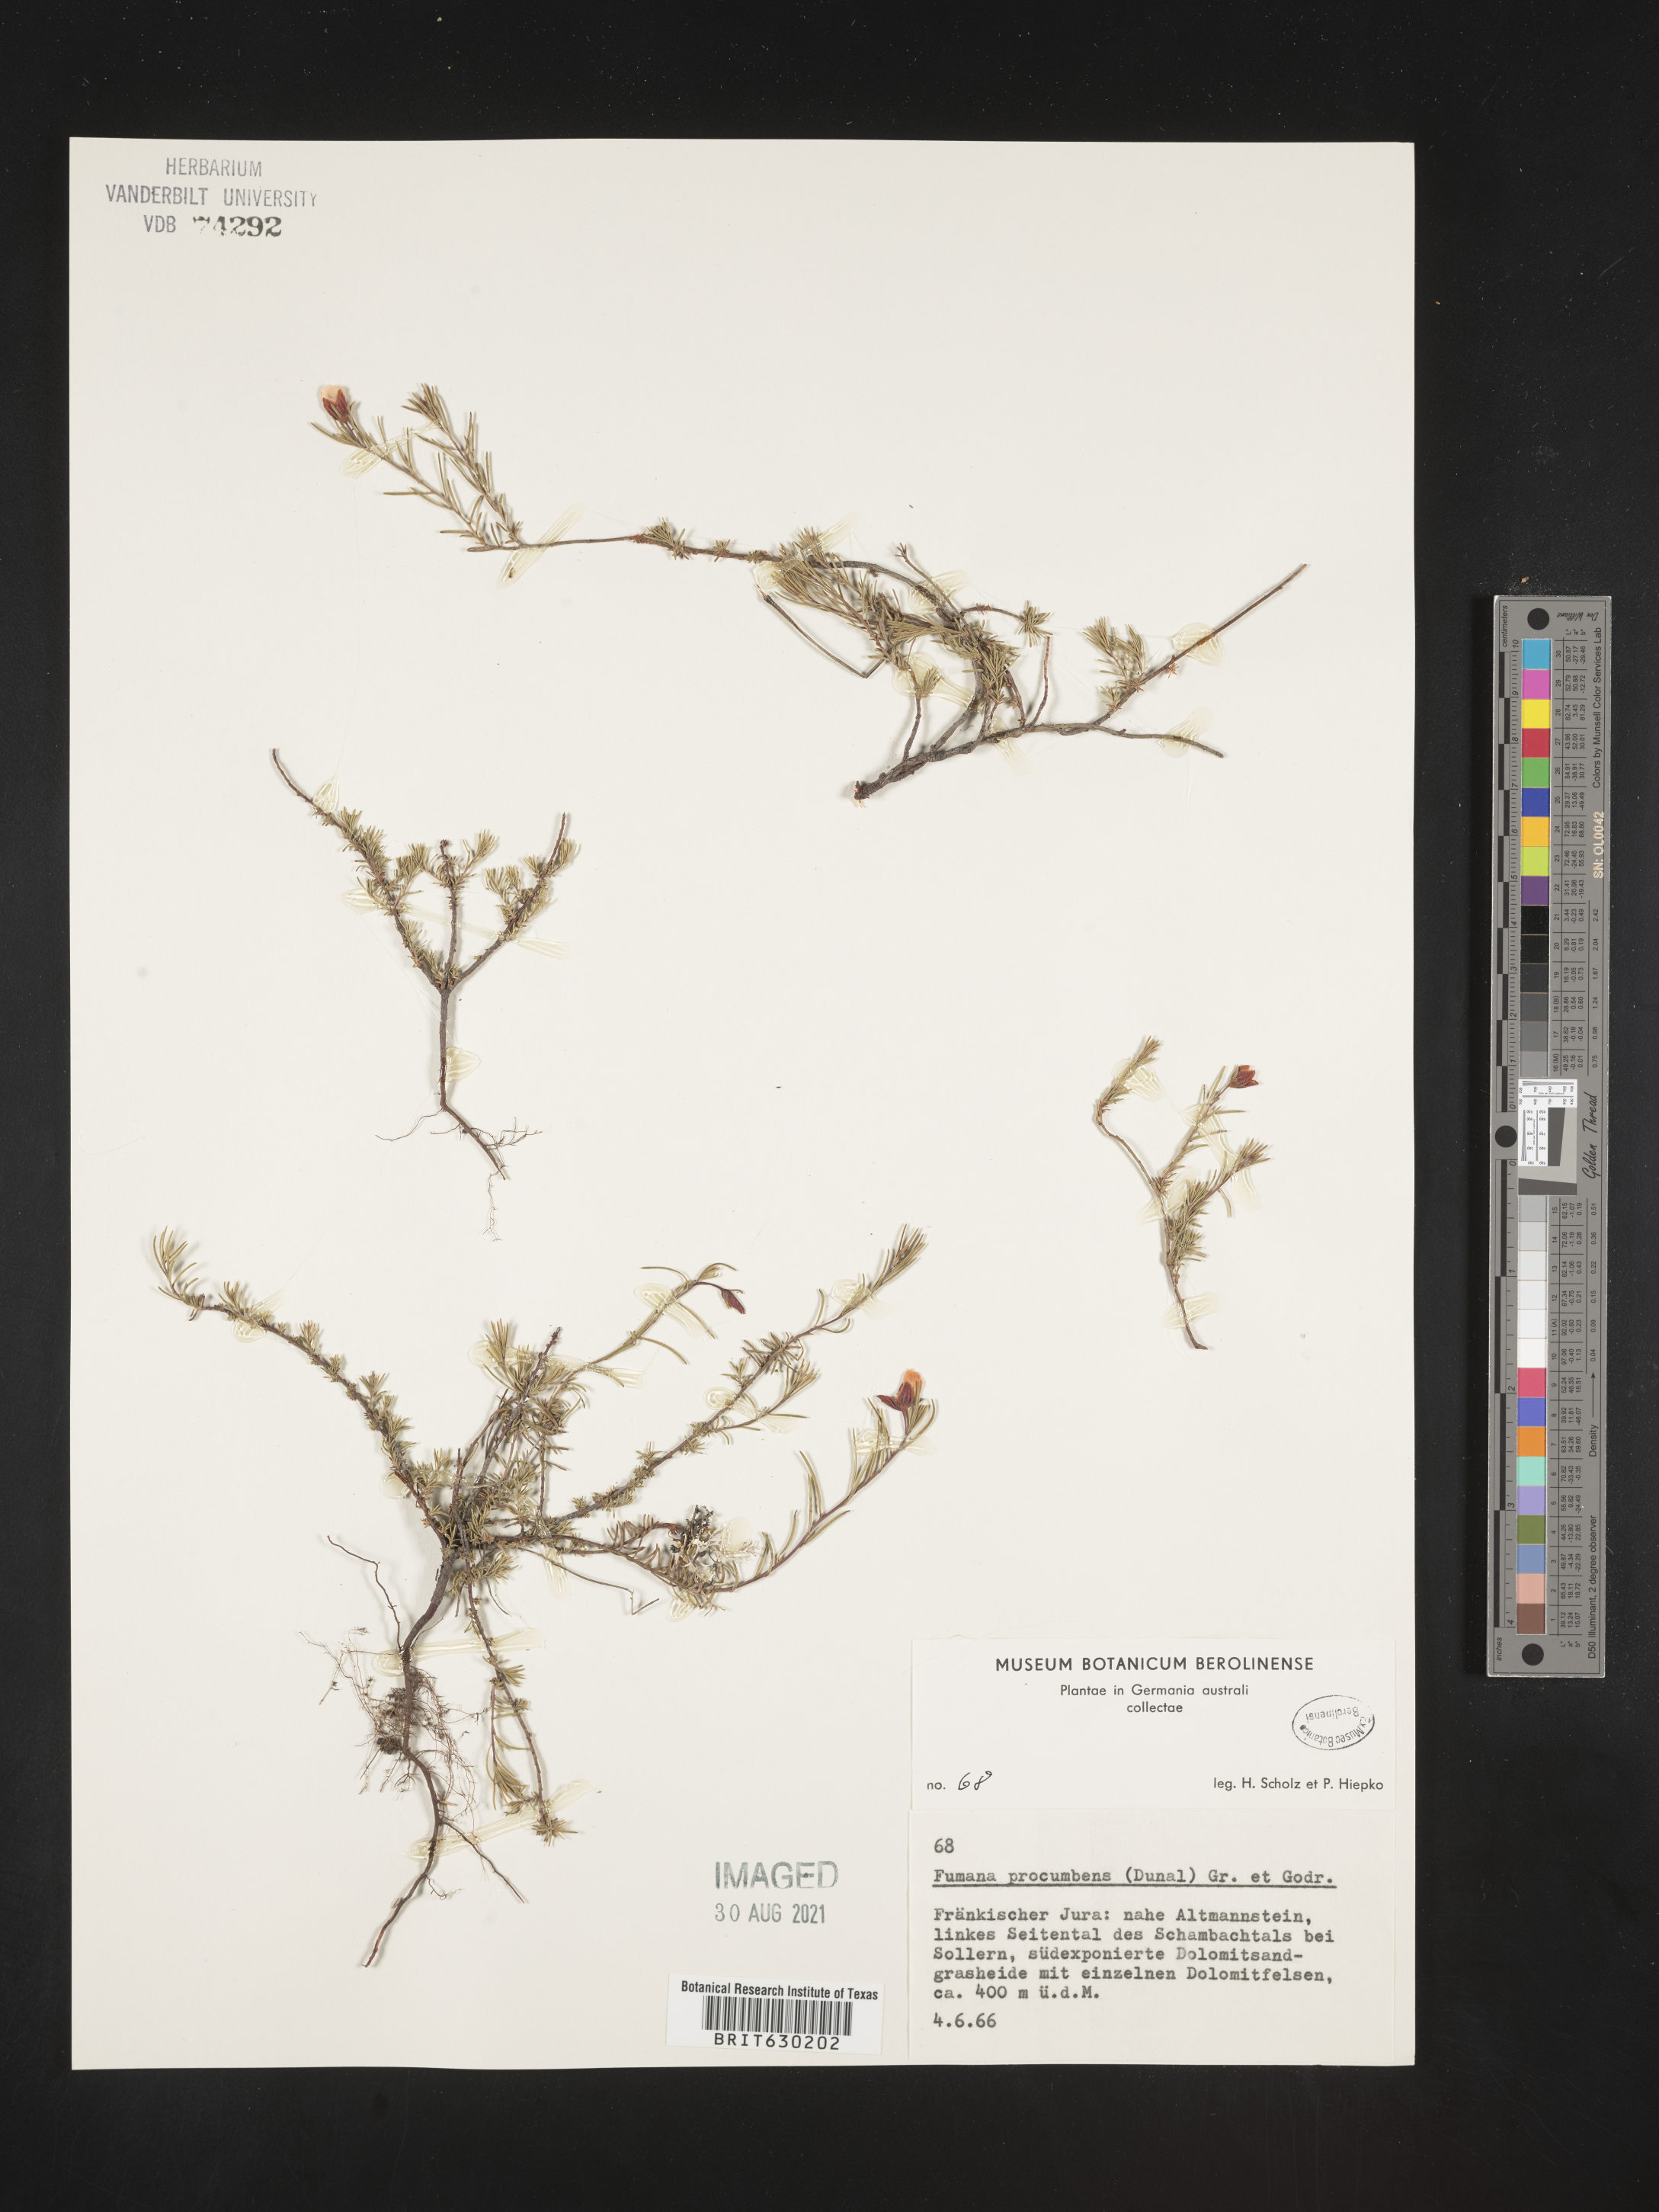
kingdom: Plantae
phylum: Tracheophyta
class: Magnoliopsida
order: Malvales
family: Cistaceae
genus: Fumana
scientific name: Fumana procumbens
